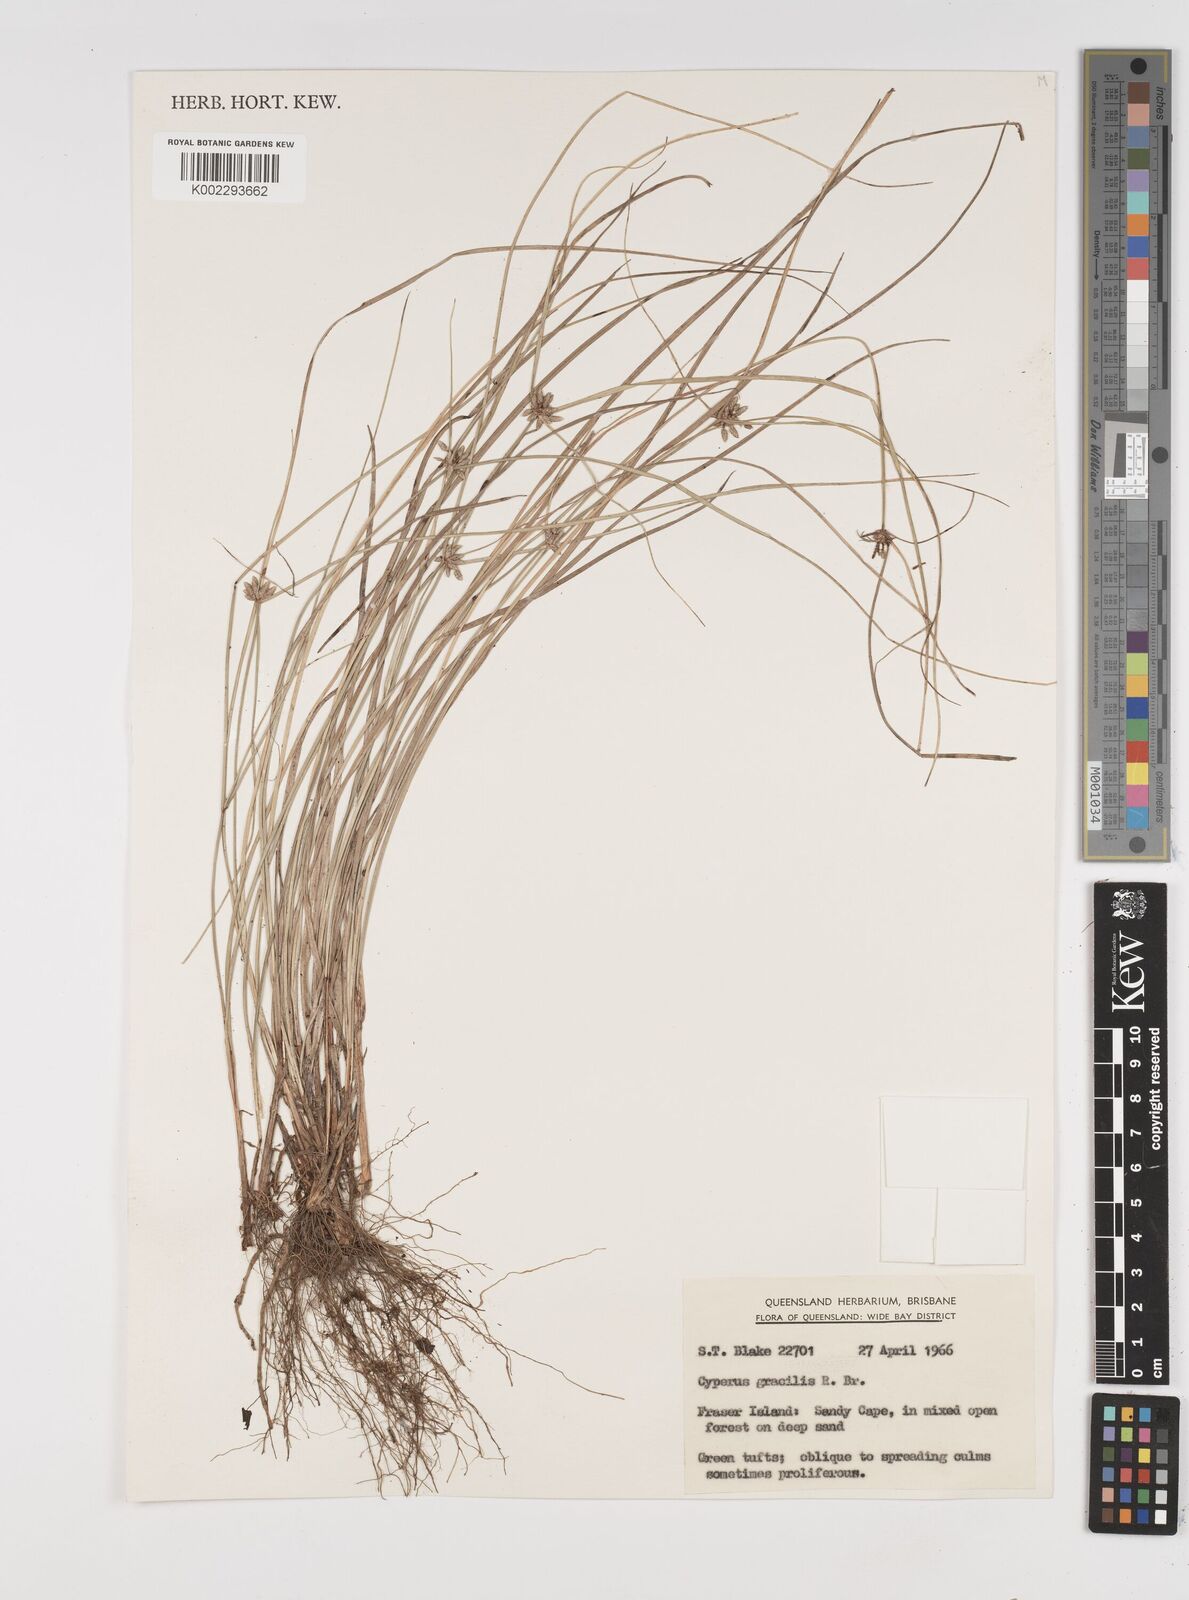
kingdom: Plantae
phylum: Tracheophyta
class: Liliopsida
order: Poales
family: Cyperaceae
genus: Cyperus
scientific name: Cyperus gracilis
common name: Slimjim flatsedge
